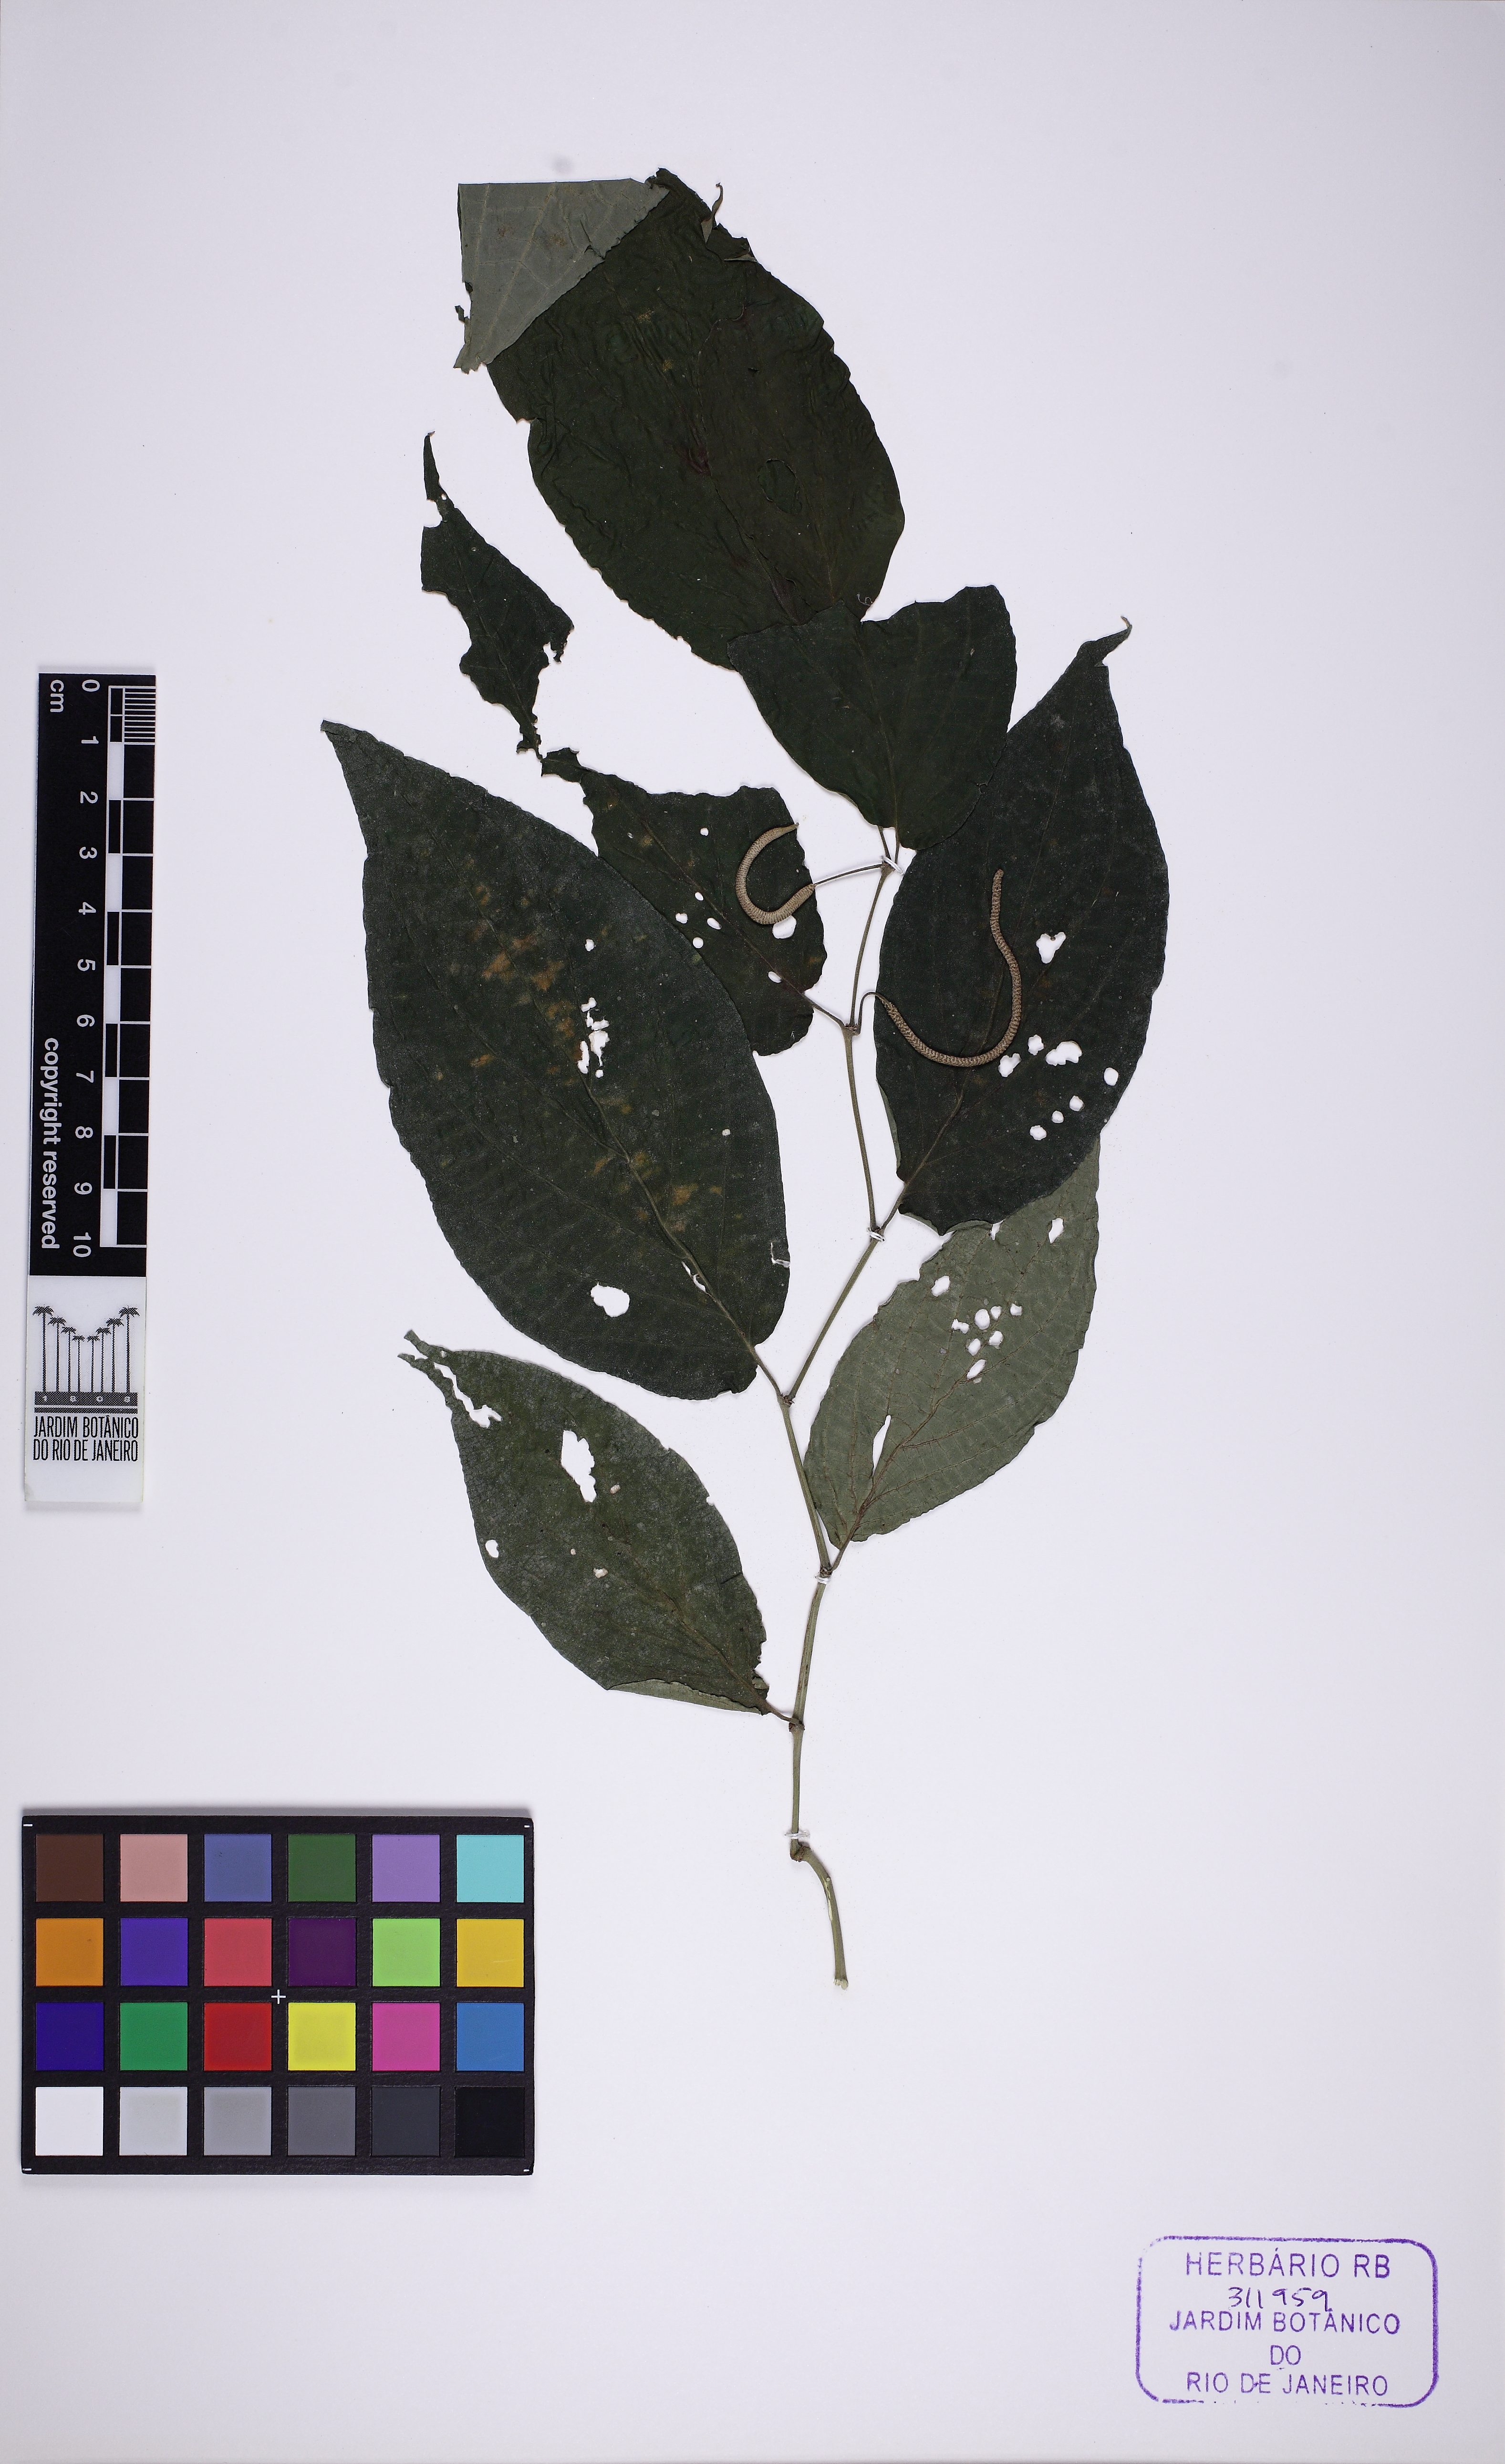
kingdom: Plantae
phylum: Tracheophyta
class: Magnoliopsida
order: Piperales
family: Piperaceae
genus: Piper
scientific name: Piper gaudichaudianum
